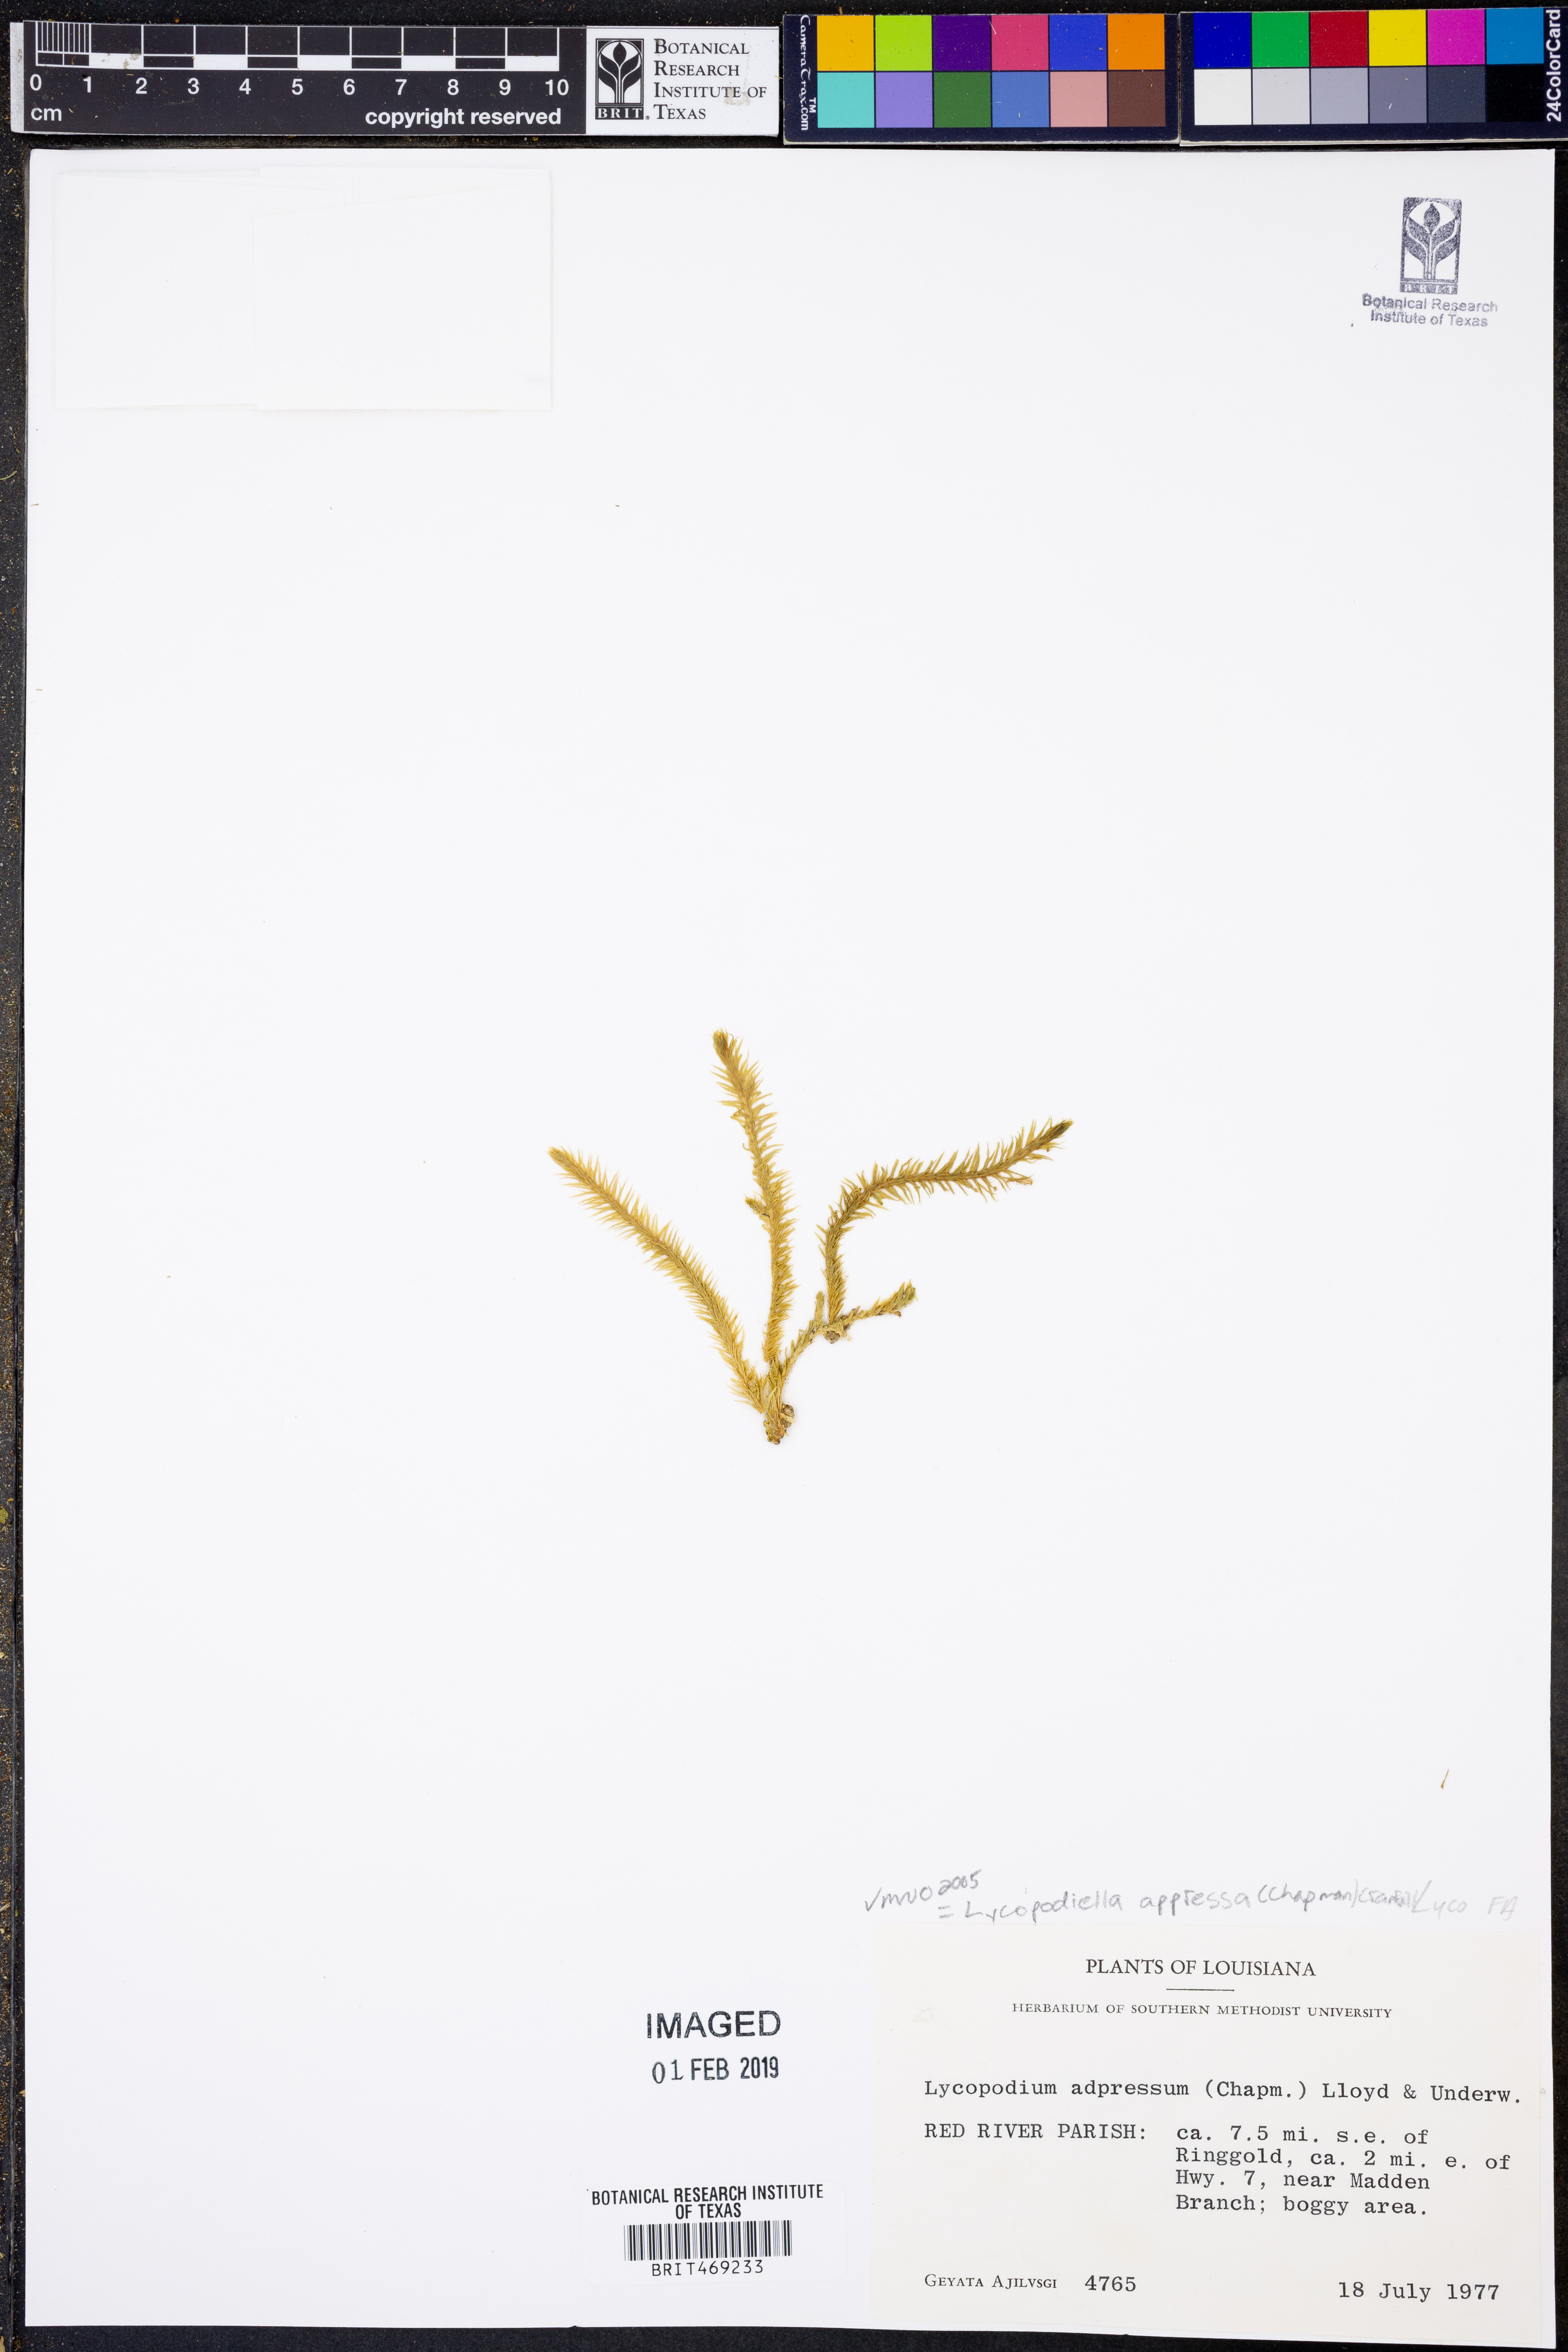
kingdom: Plantae
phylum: Tracheophyta
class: Lycopodiopsida
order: Lycopodiales
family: Lycopodiaceae
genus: Lycopodiella
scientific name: Lycopodiella appressa
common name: Appressed bog clubmoss
